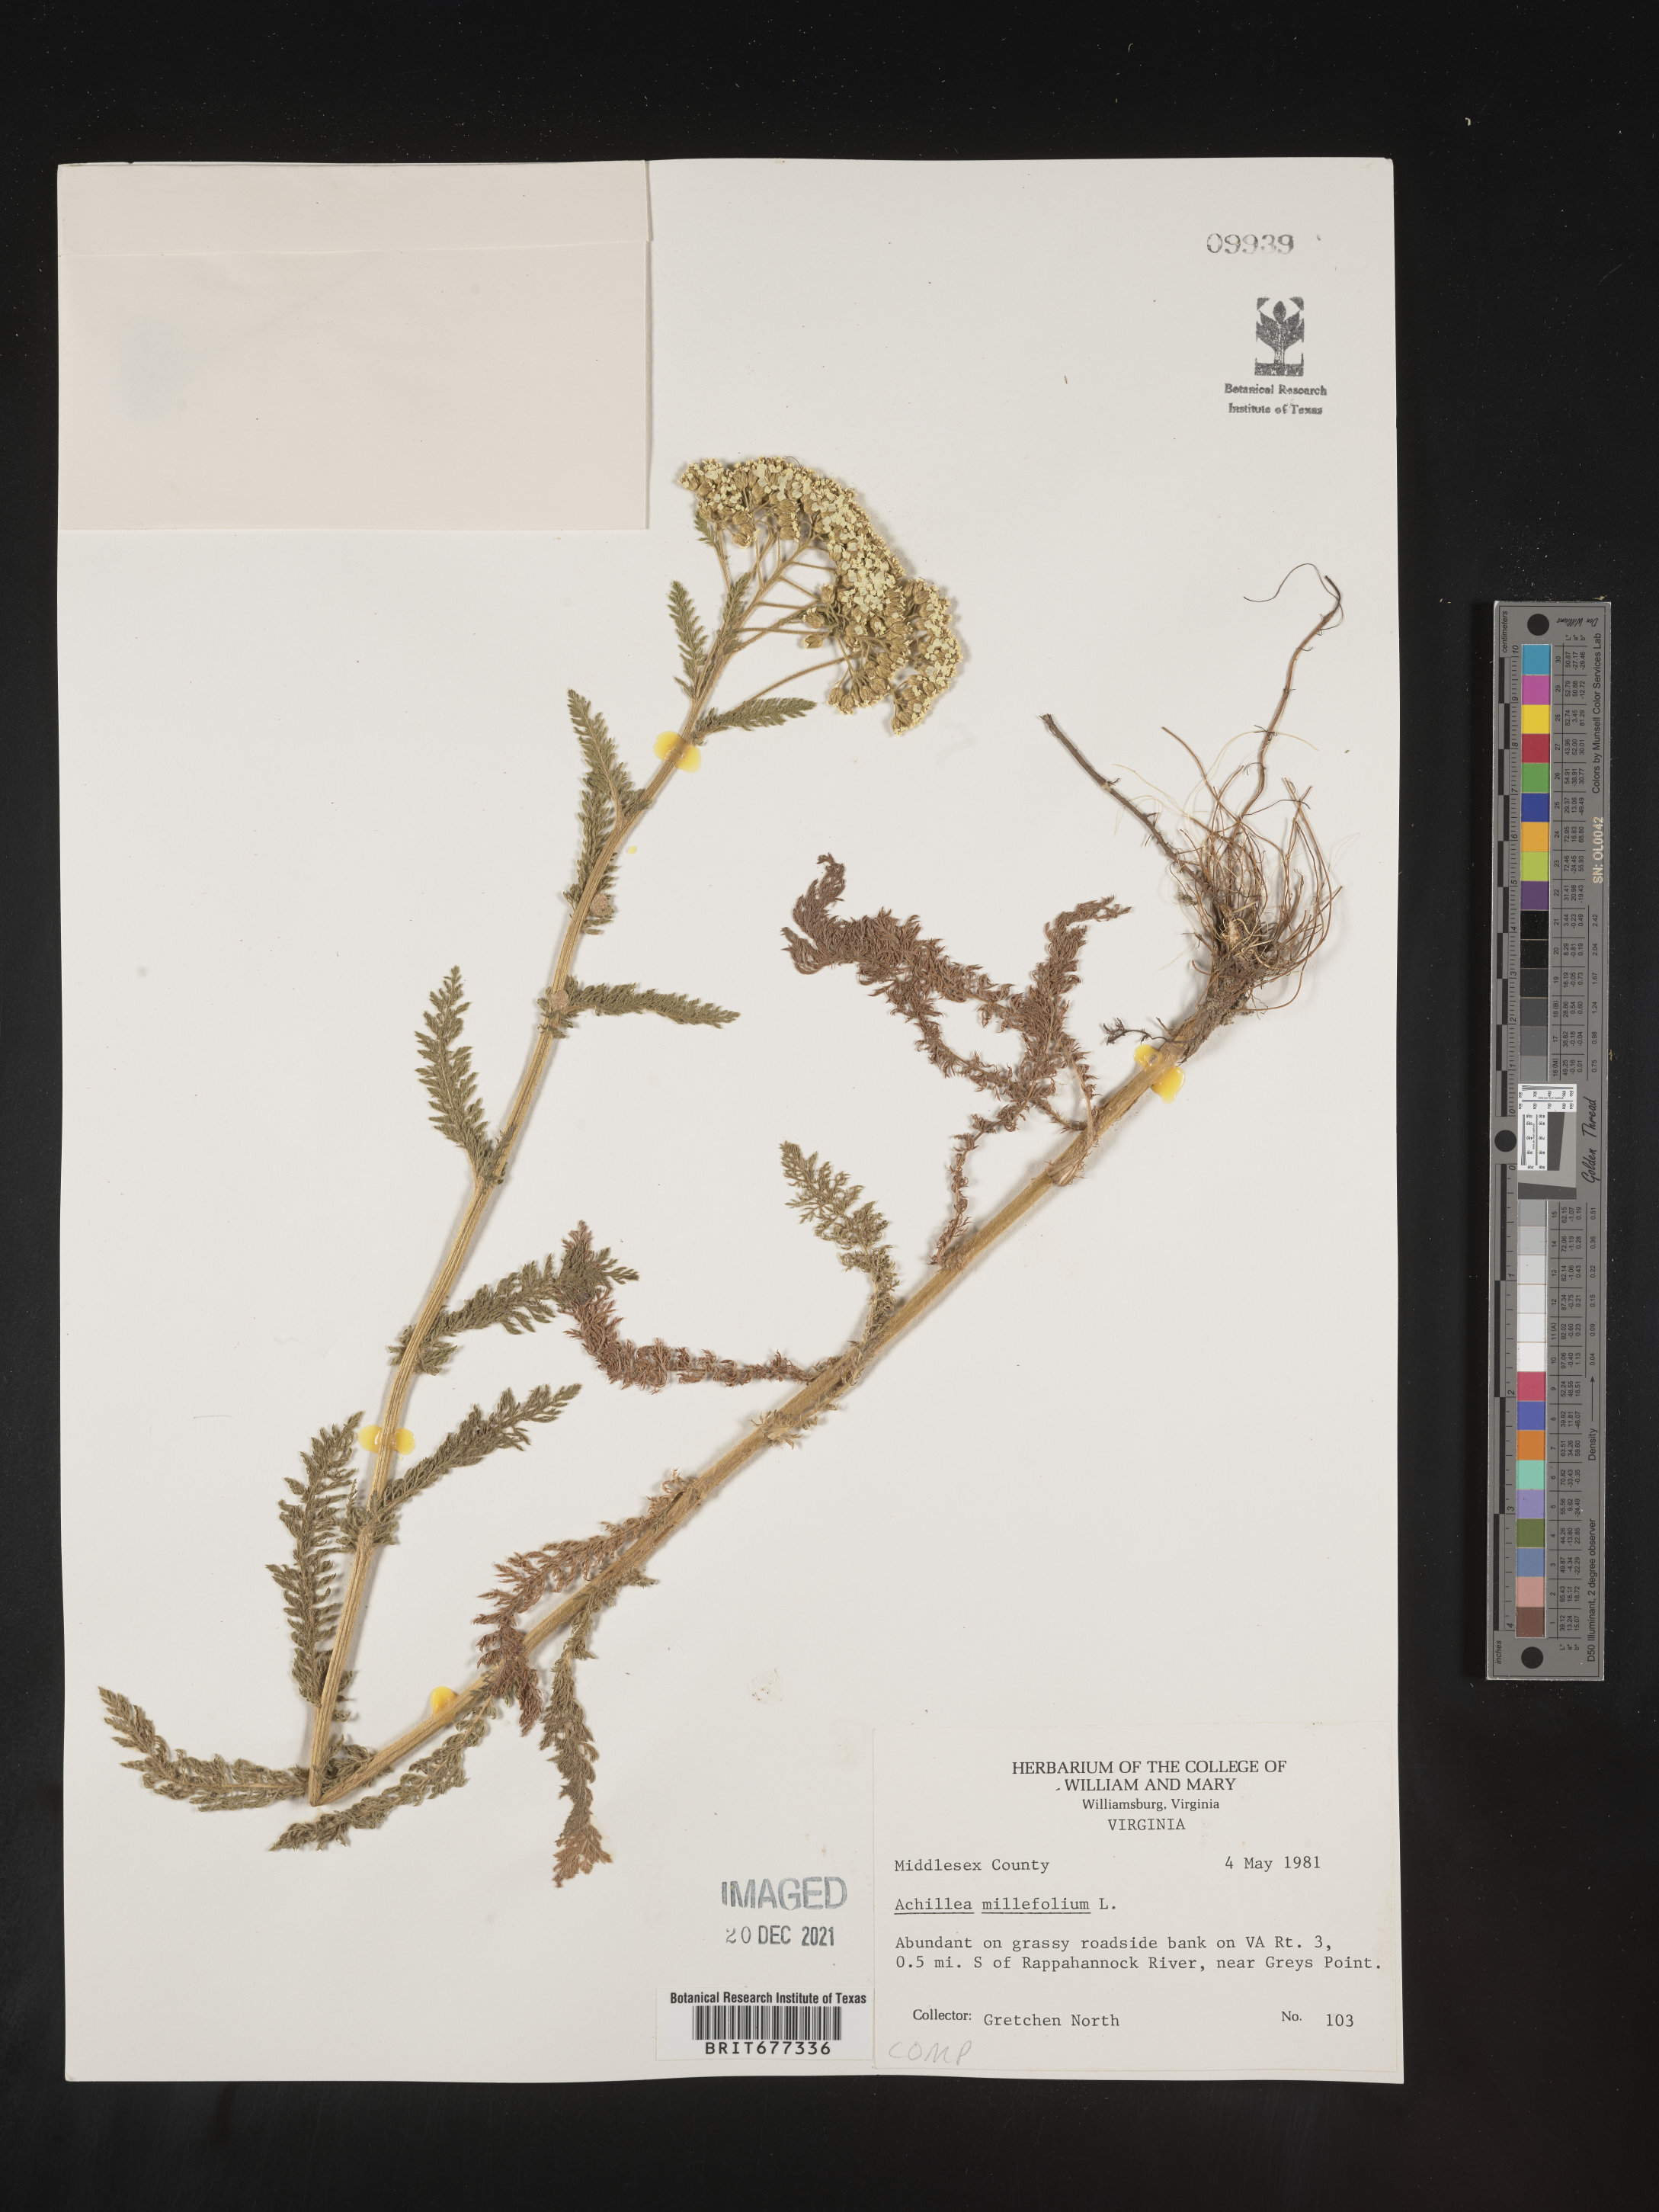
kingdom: Plantae
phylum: Tracheophyta
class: Magnoliopsida
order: Asterales
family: Asteraceae
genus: Achillea
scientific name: Achillea millefolium
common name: Yarrow
